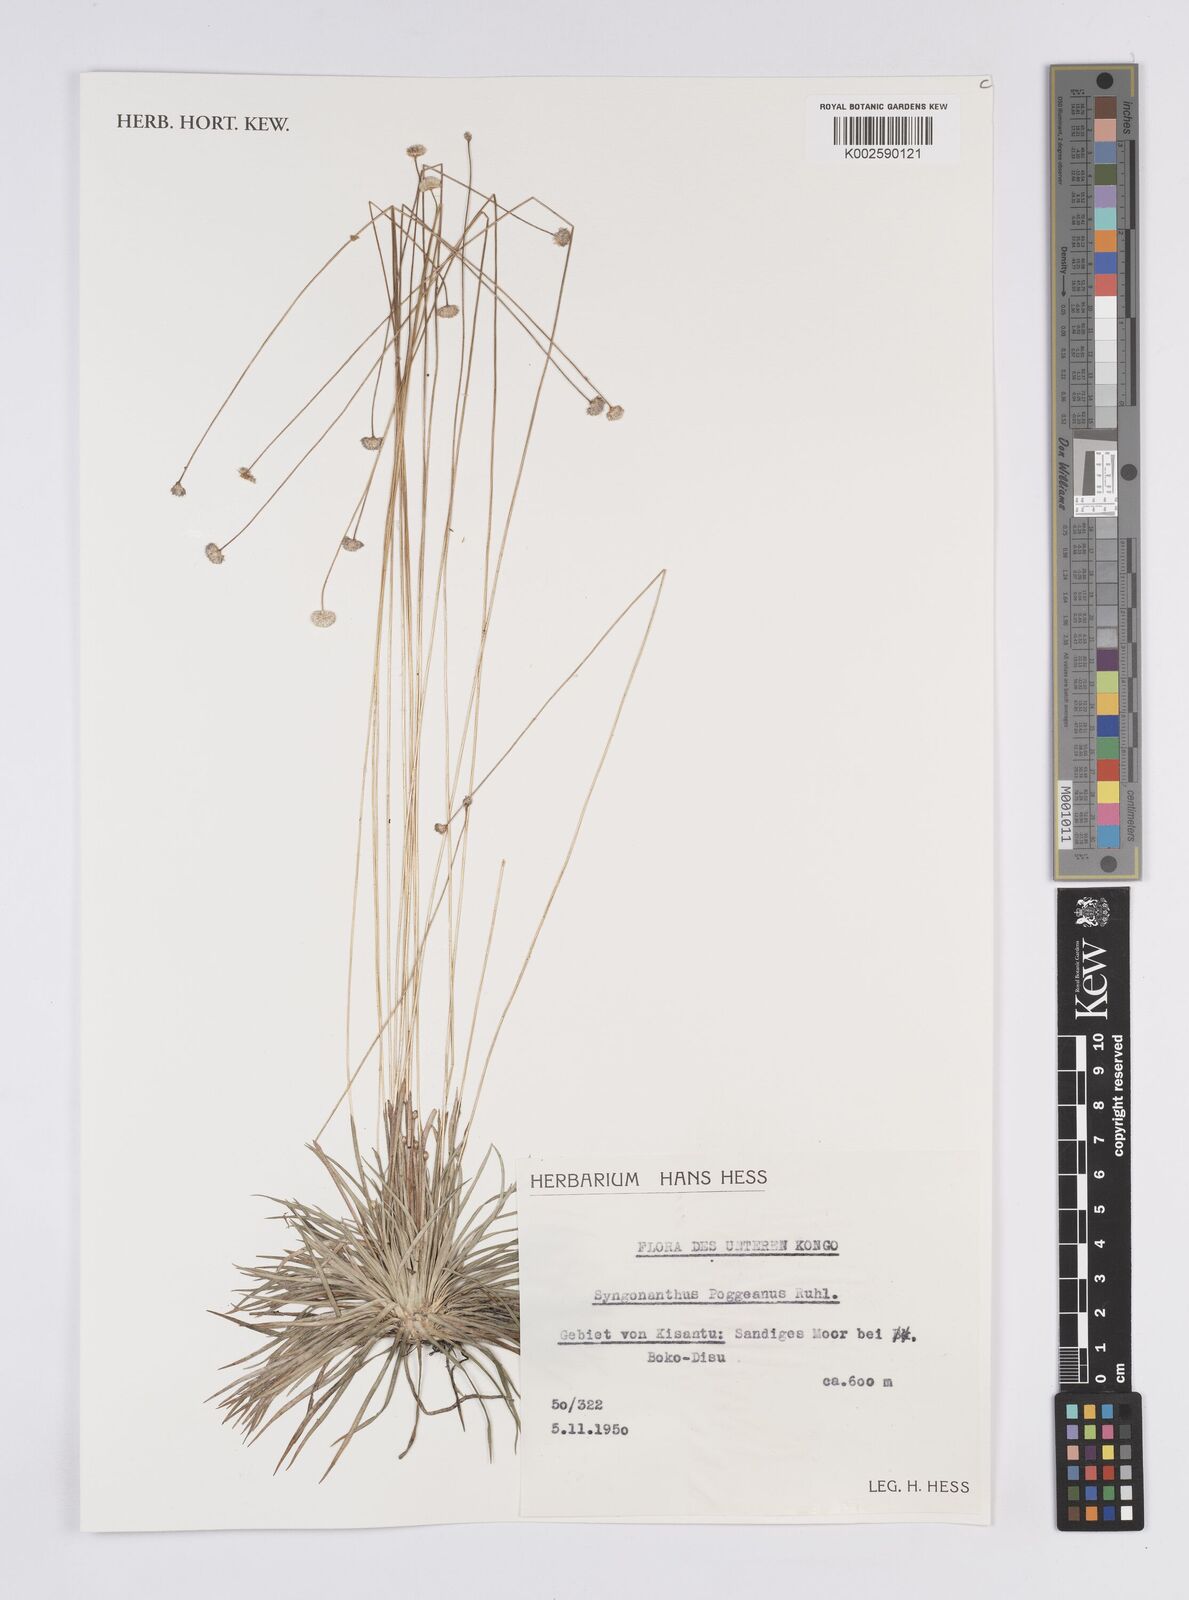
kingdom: Plantae
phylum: Tracheophyta
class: Liliopsida
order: Poales
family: Eriocaulaceae
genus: Syngonanthus
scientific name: Syngonanthus poggeanus
